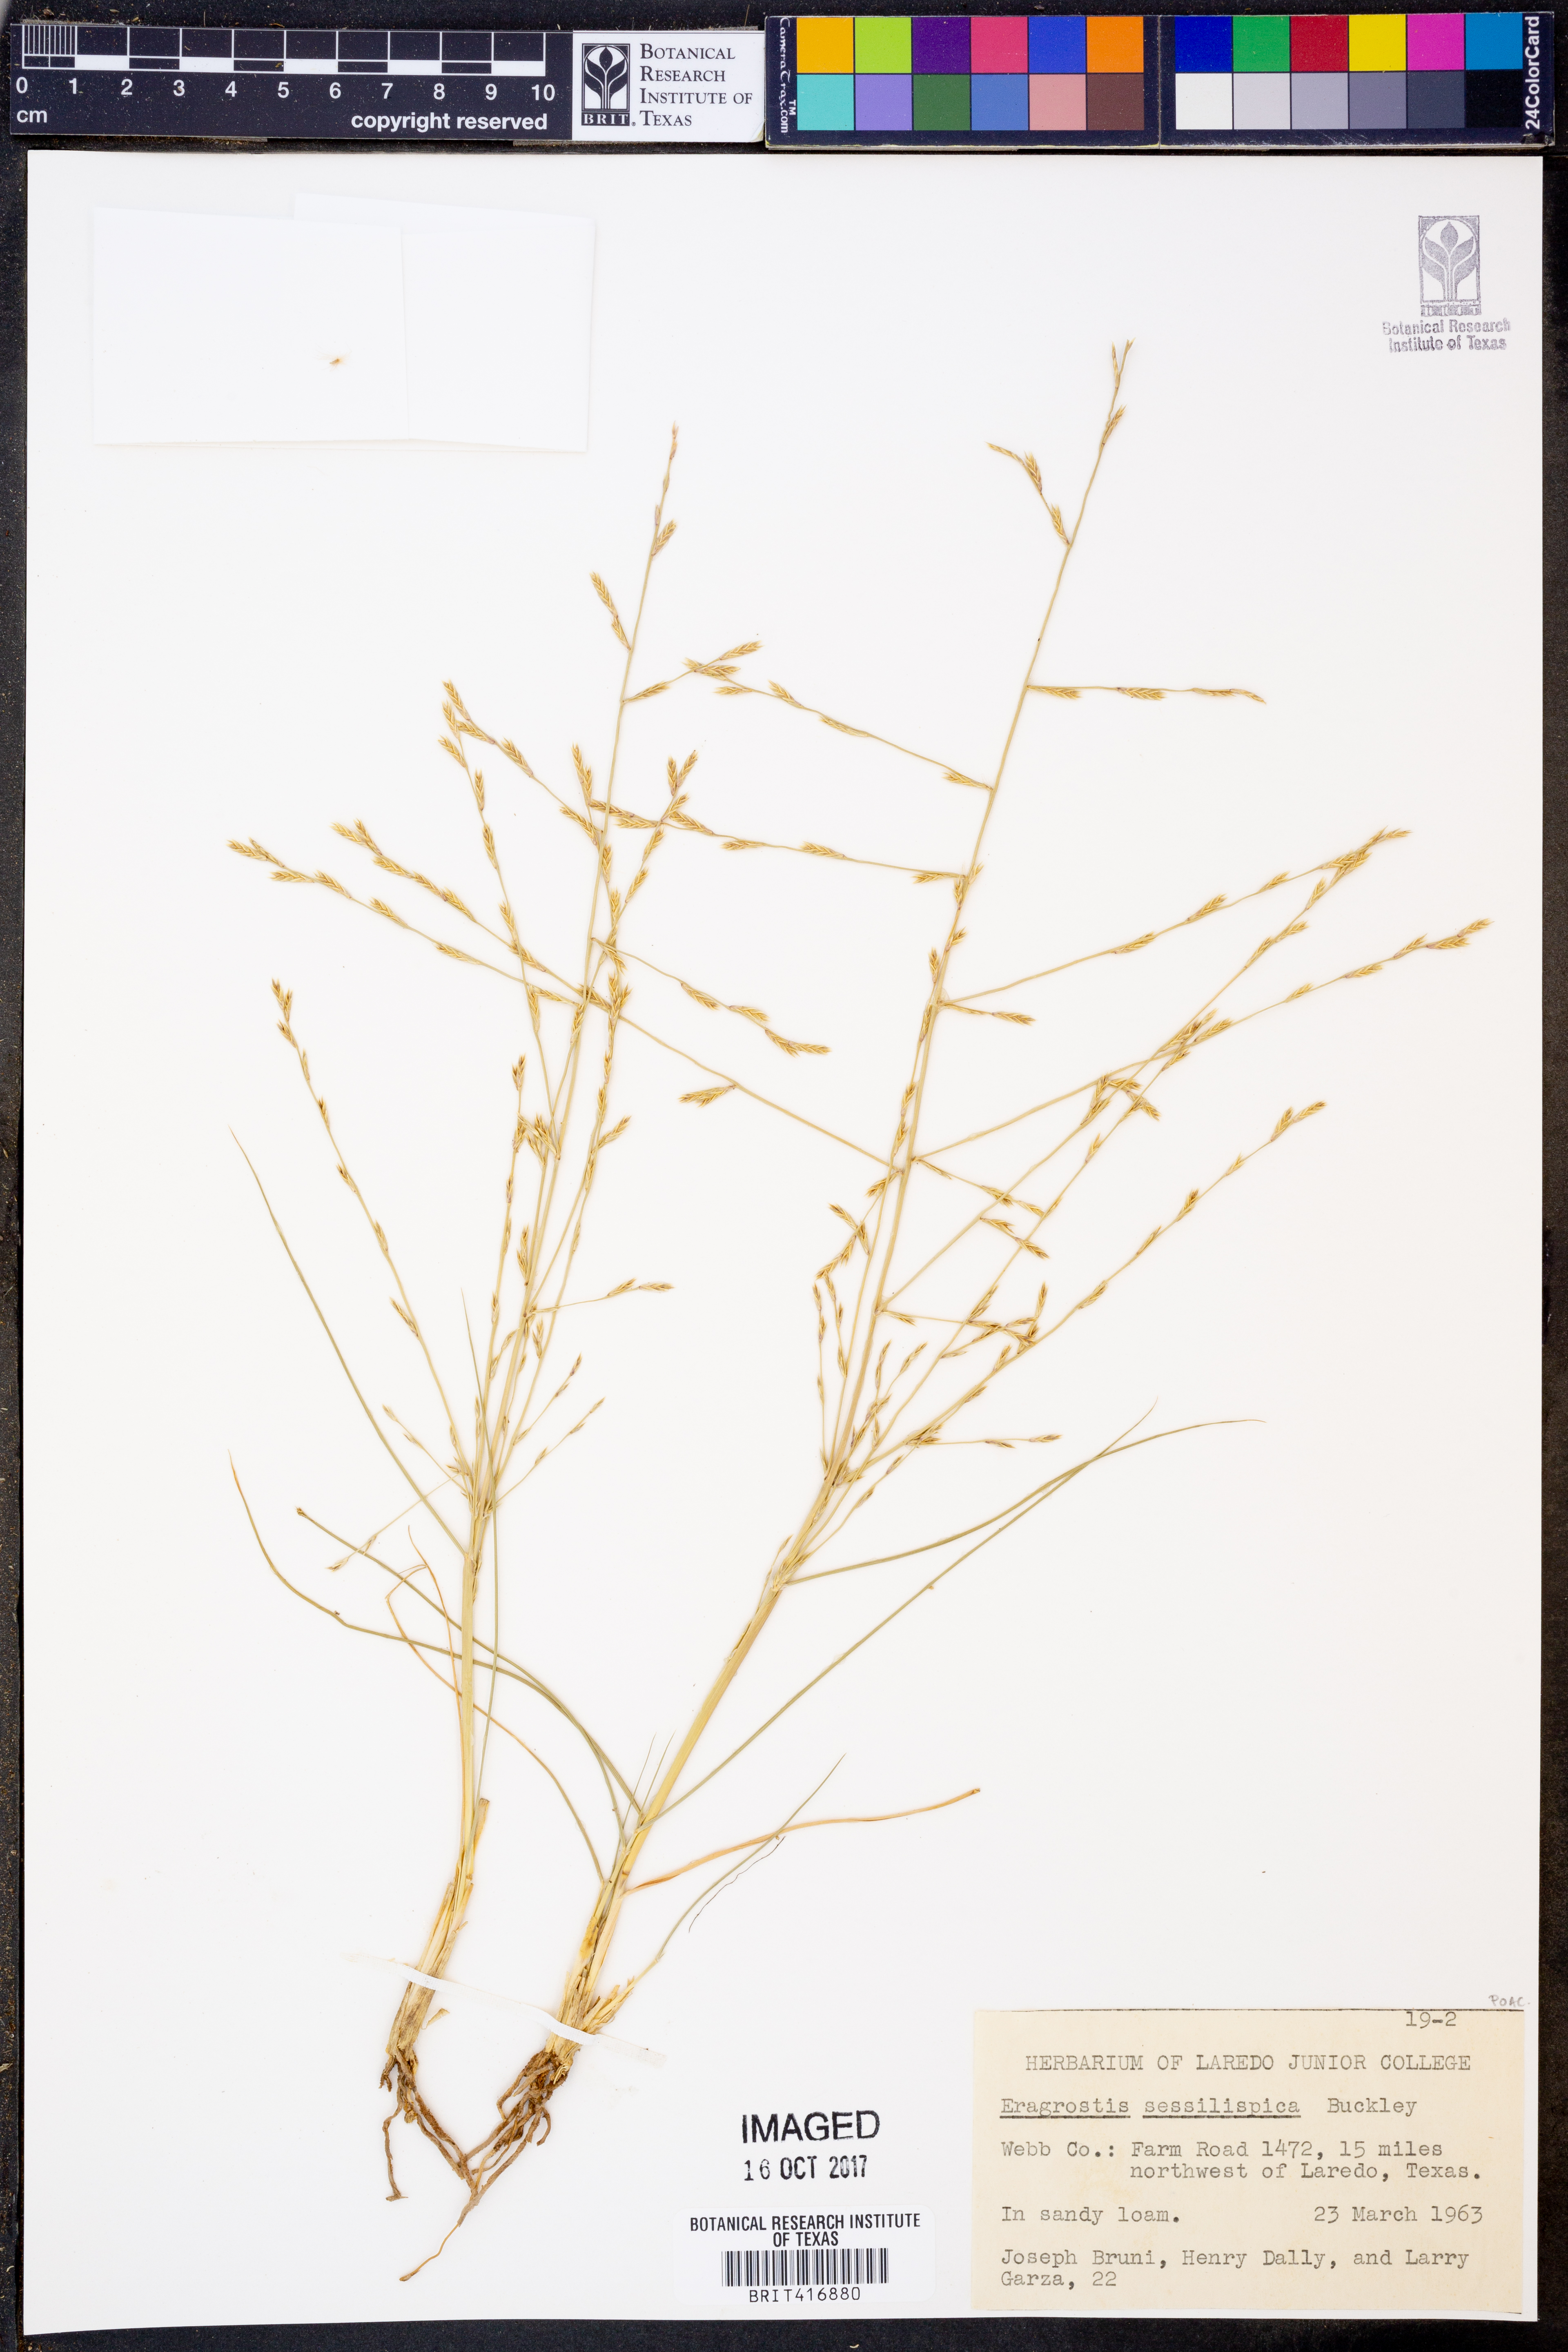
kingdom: Plantae
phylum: Tracheophyta
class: Liliopsida
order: Poales
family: Poaceae
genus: Eragrostis
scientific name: Eragrostis sessilispica
